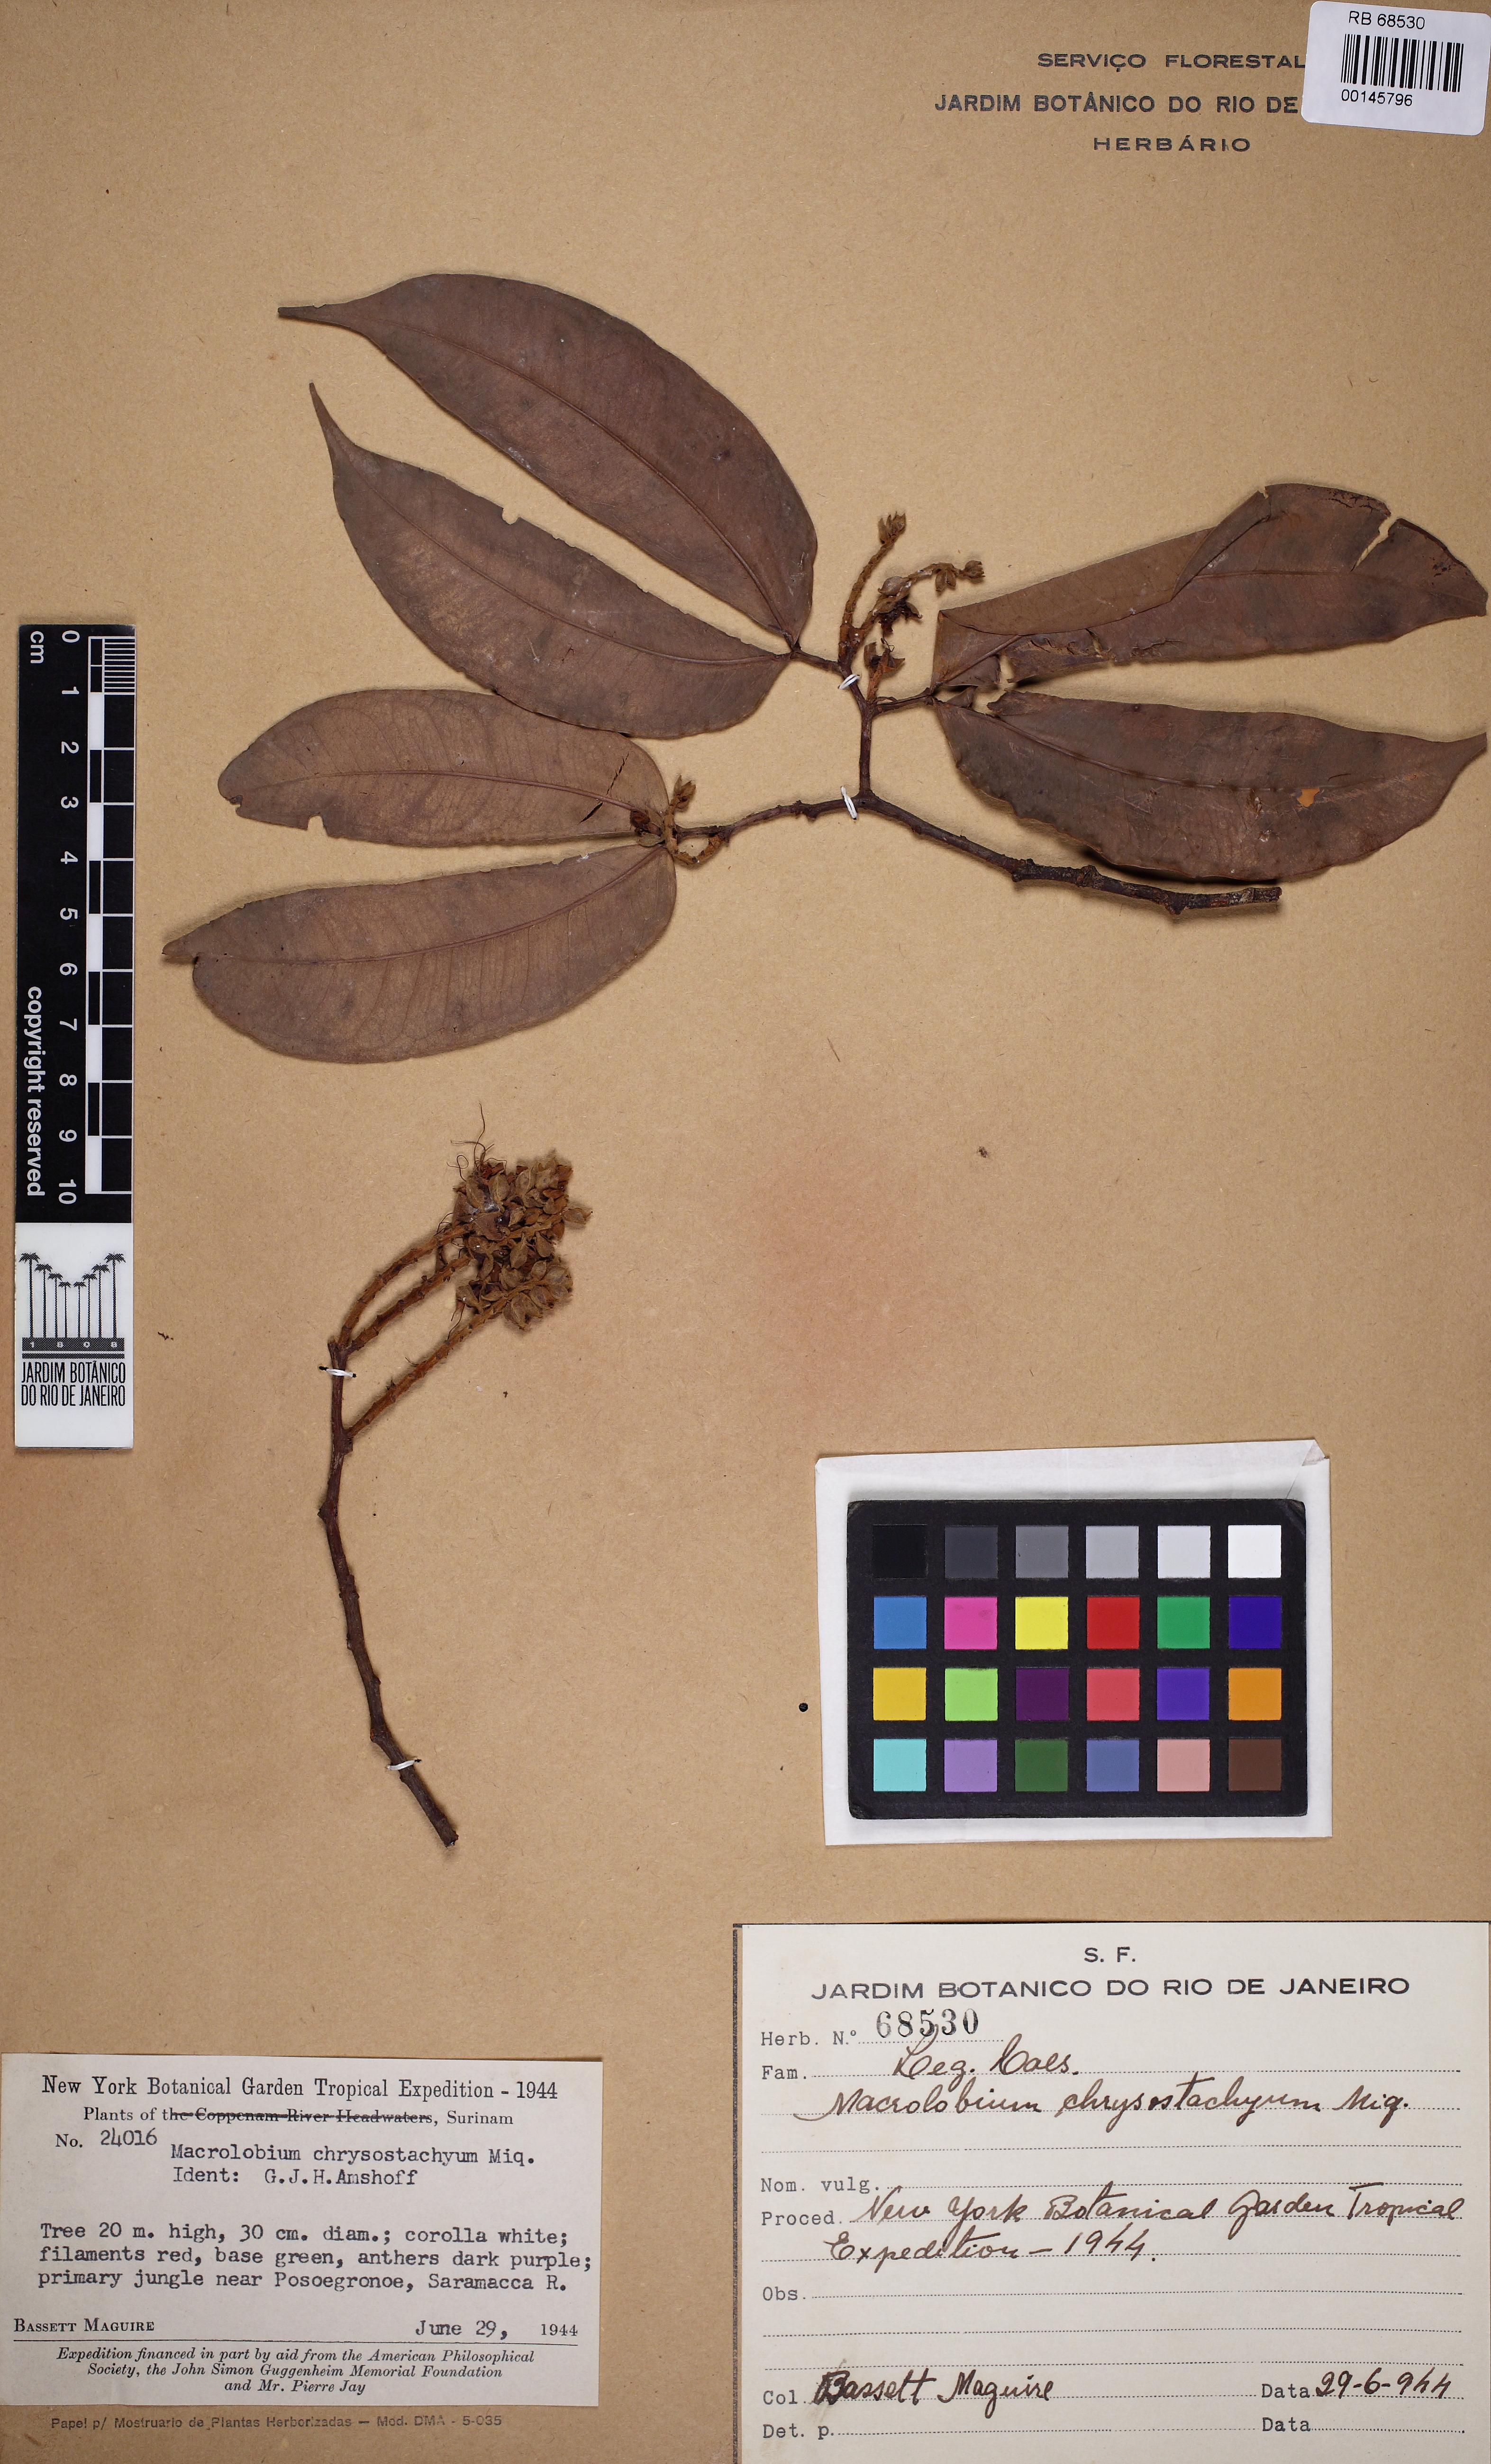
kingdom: Plantae
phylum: Tracheophyta
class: Magnoliopsida
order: Fabales
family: Fabaceae
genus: Macrolobium
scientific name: Macrolobium angustifolium
